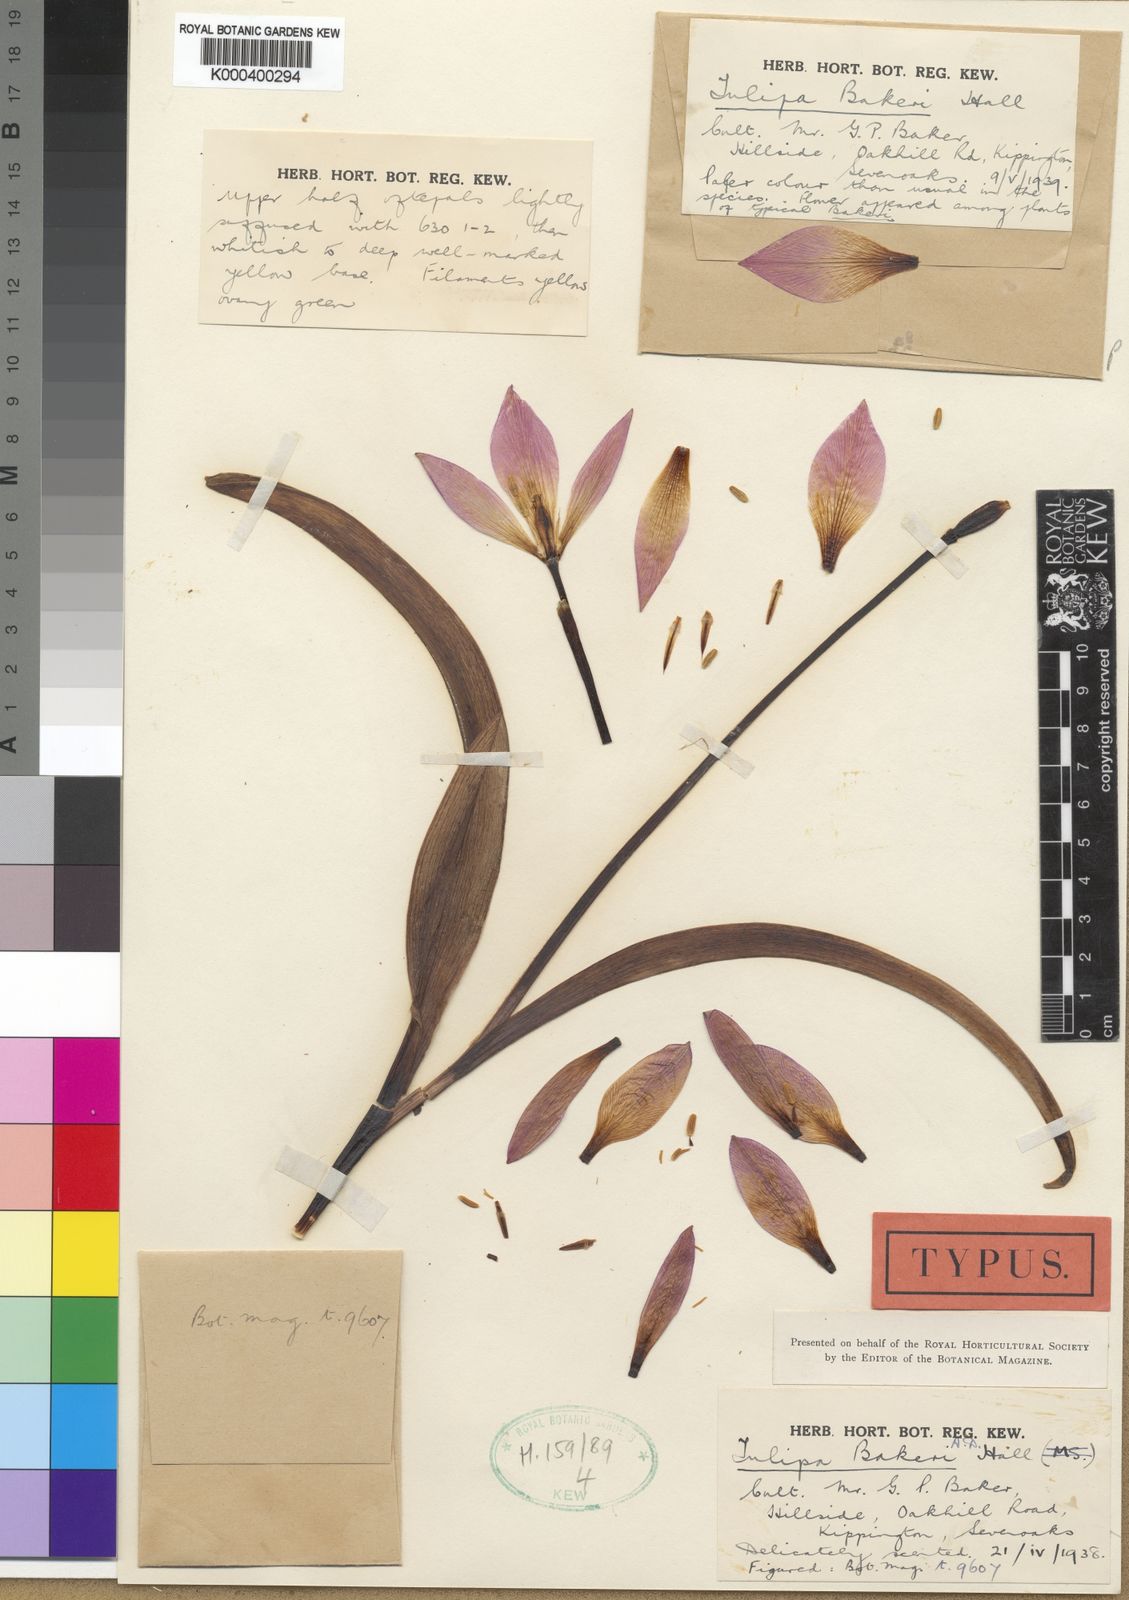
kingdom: Plantae
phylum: Tracheophyta
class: Liliopsida
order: Liliales
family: Liliaceae
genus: Tulipa
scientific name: Tulipa saxatilis
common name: Cretan tulip
